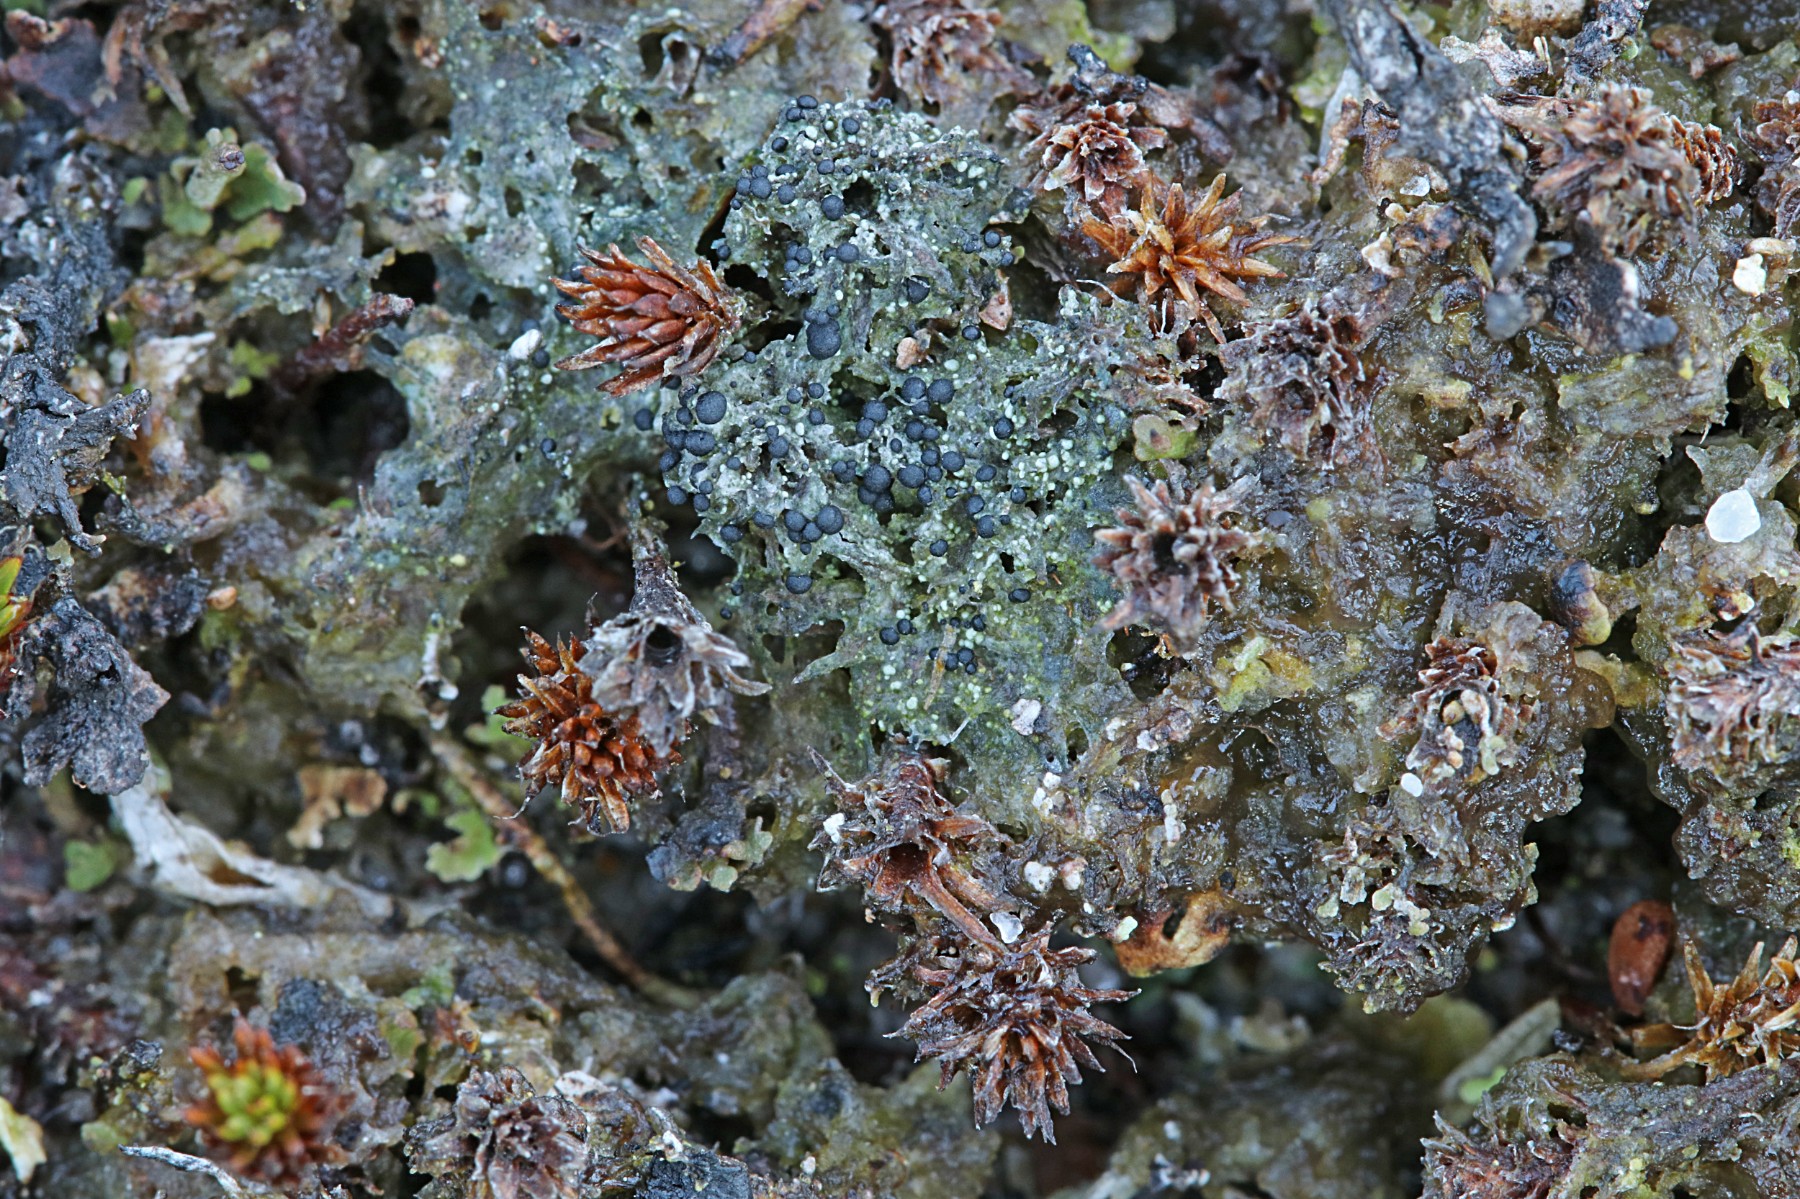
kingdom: Fungi
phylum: Ascomycota
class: Lecanoromycetes
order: Lecanorales
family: Byssolomataceae
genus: Micarea
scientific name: Micarea lignaria
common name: tørve-knaplav
